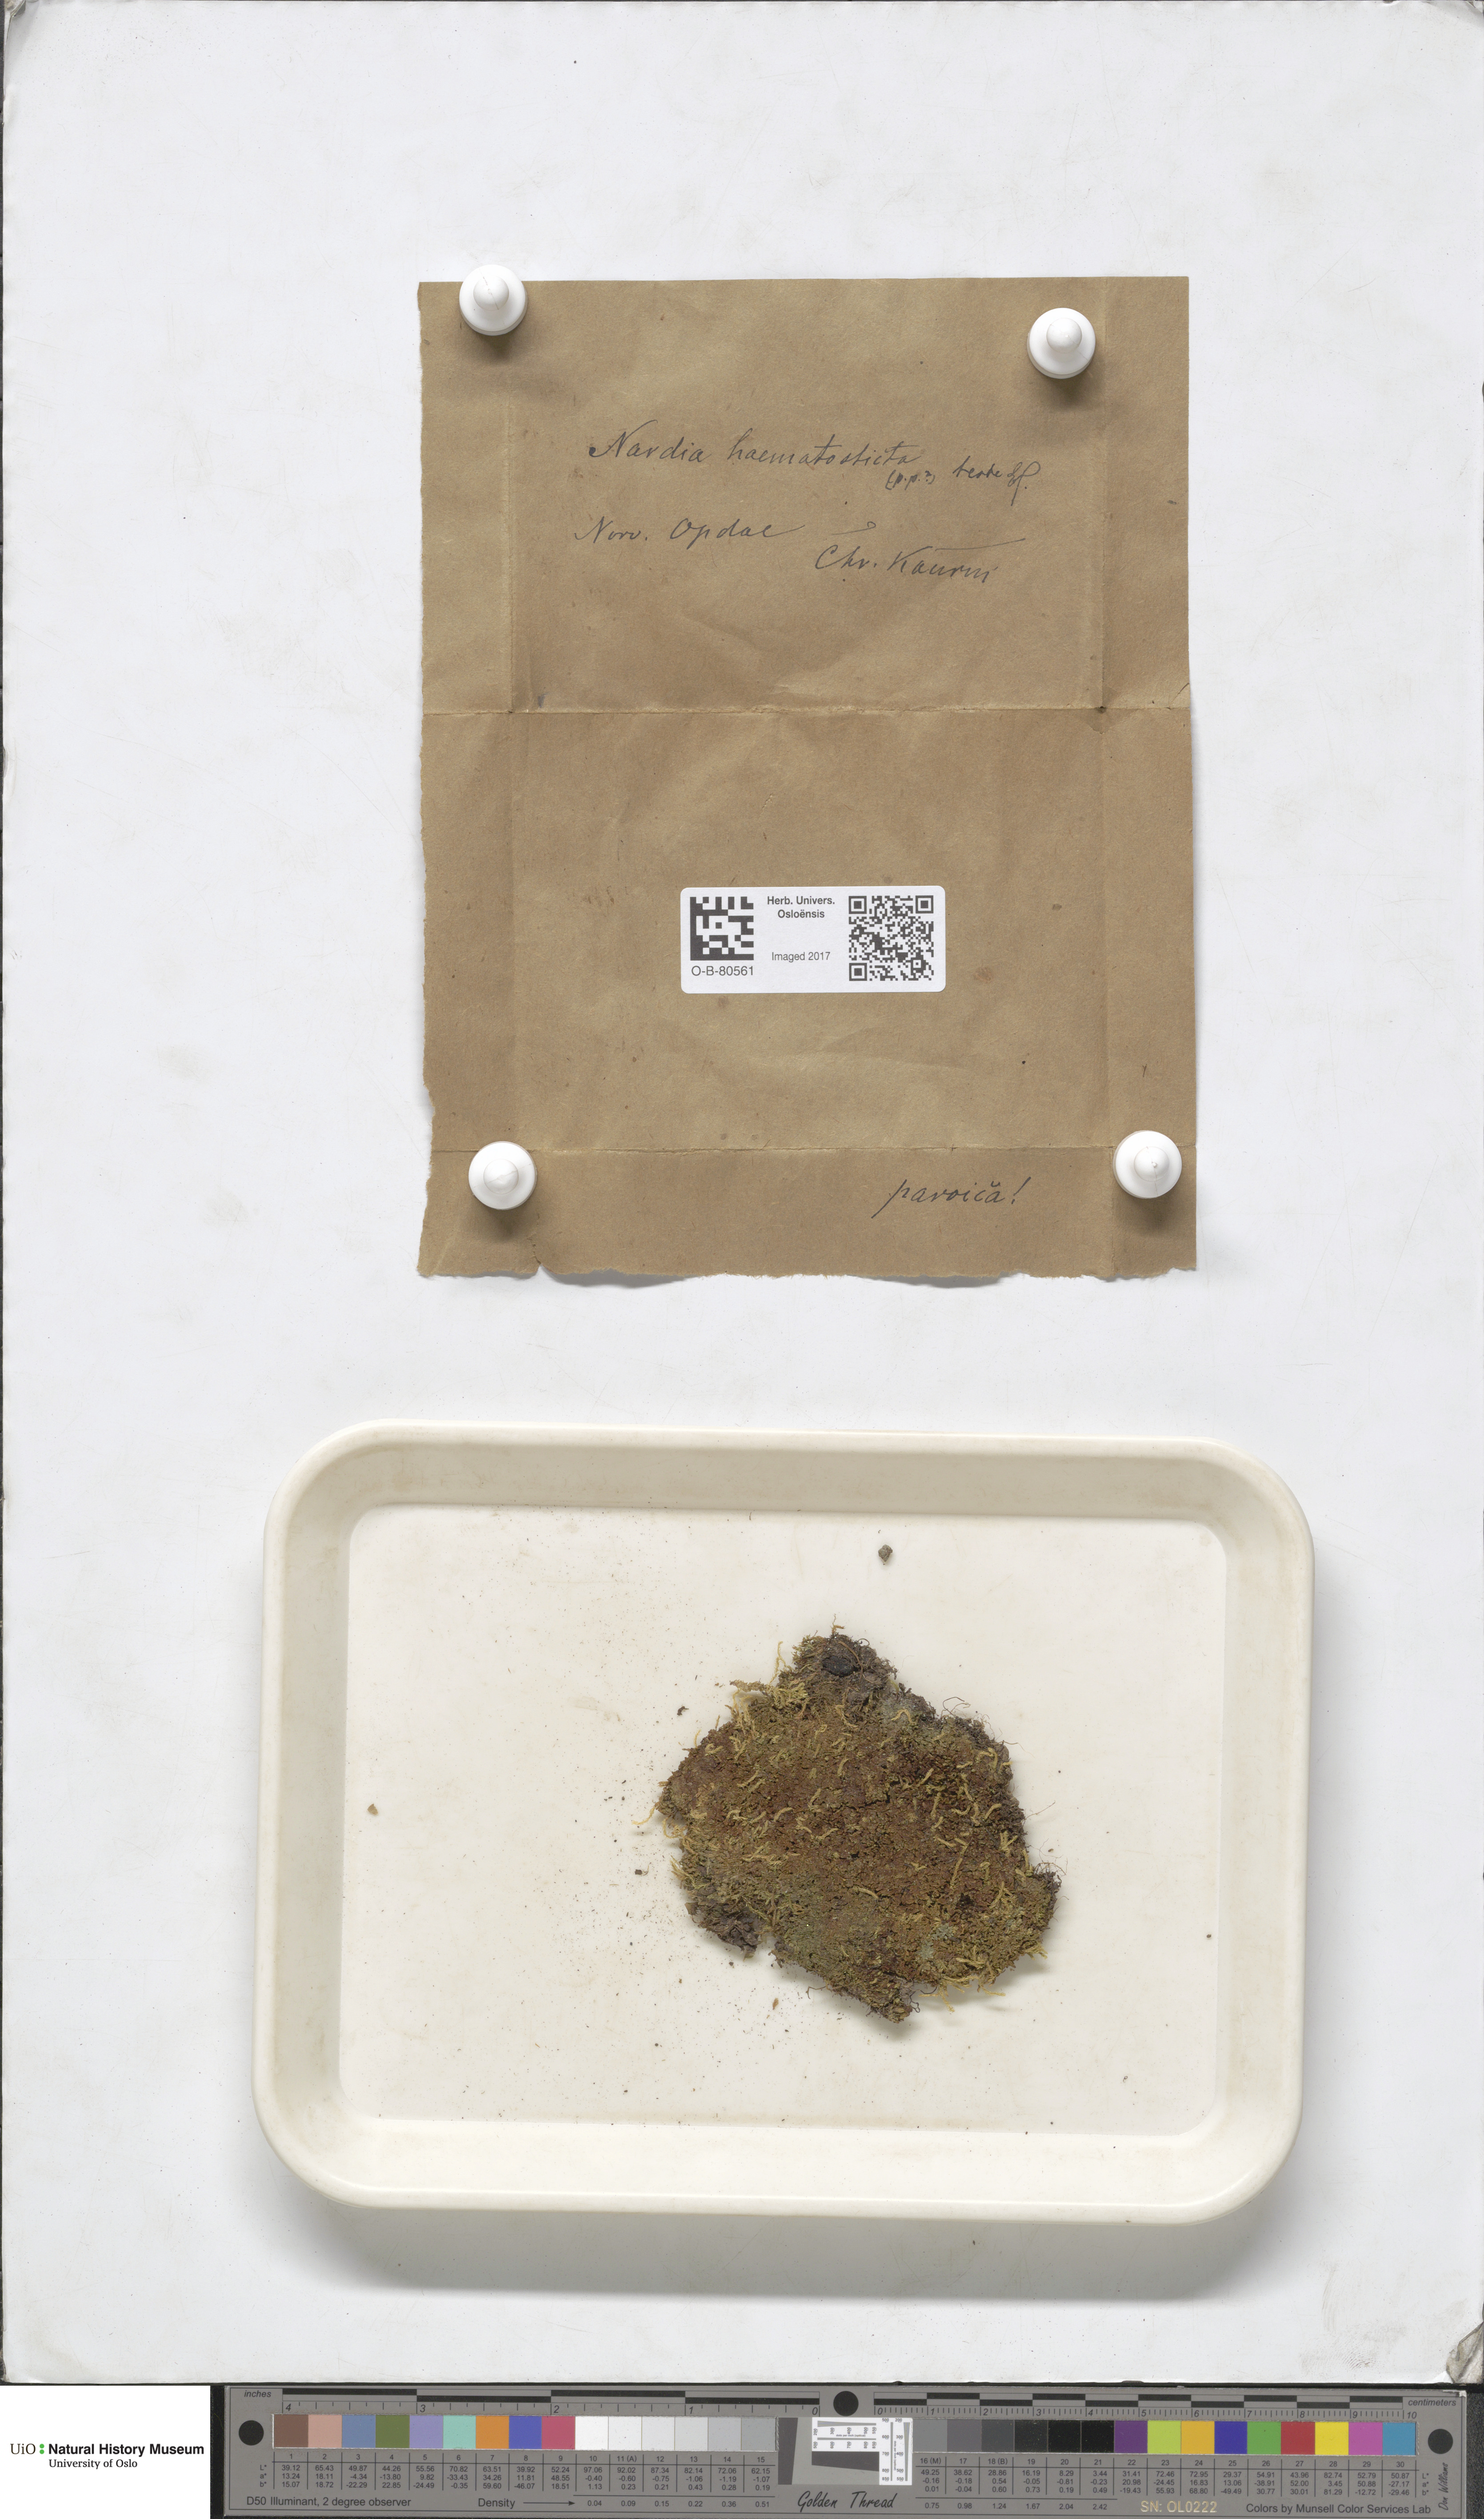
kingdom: Plantae
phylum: Marchantiophyta
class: Jungermanniopsida
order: Jungermanniales
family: Gymnomitriaceae
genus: Nardia
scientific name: Nardia geoscyphus
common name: Earth-cup flapwort
